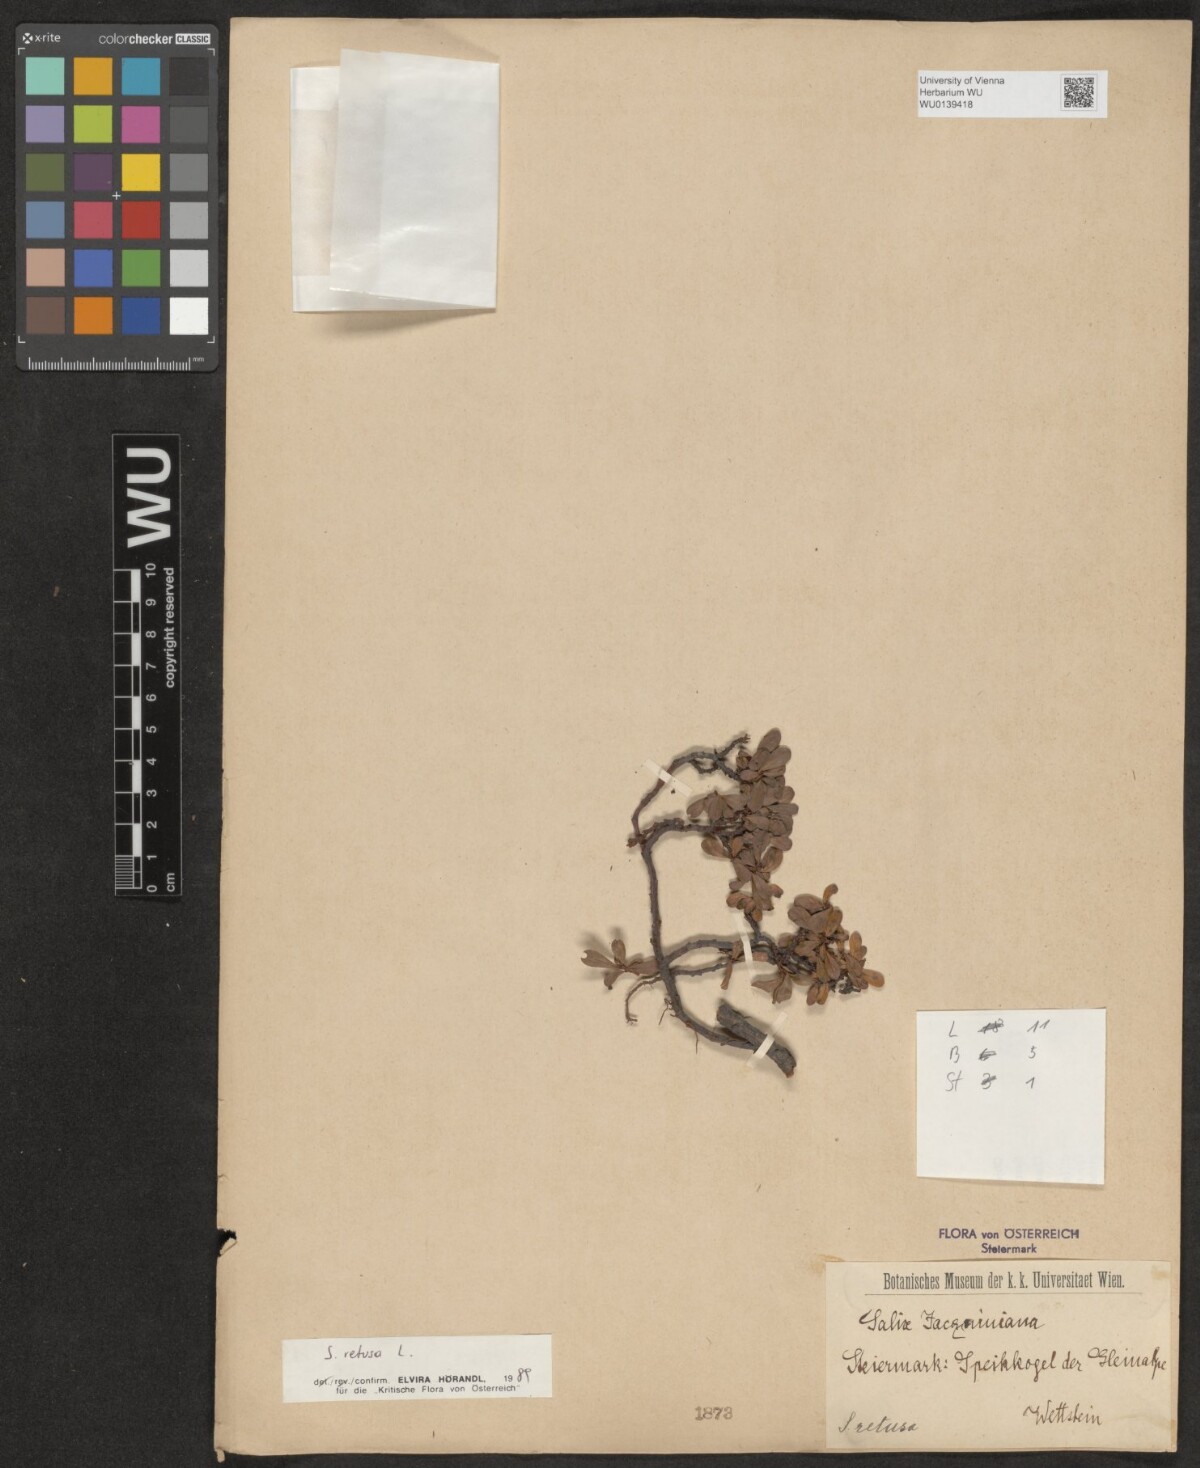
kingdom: Plantae
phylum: Tracheophyta
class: Magnoliopsida
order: Malpighiales
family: Salicaceae
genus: Salix
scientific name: Salix retusa
